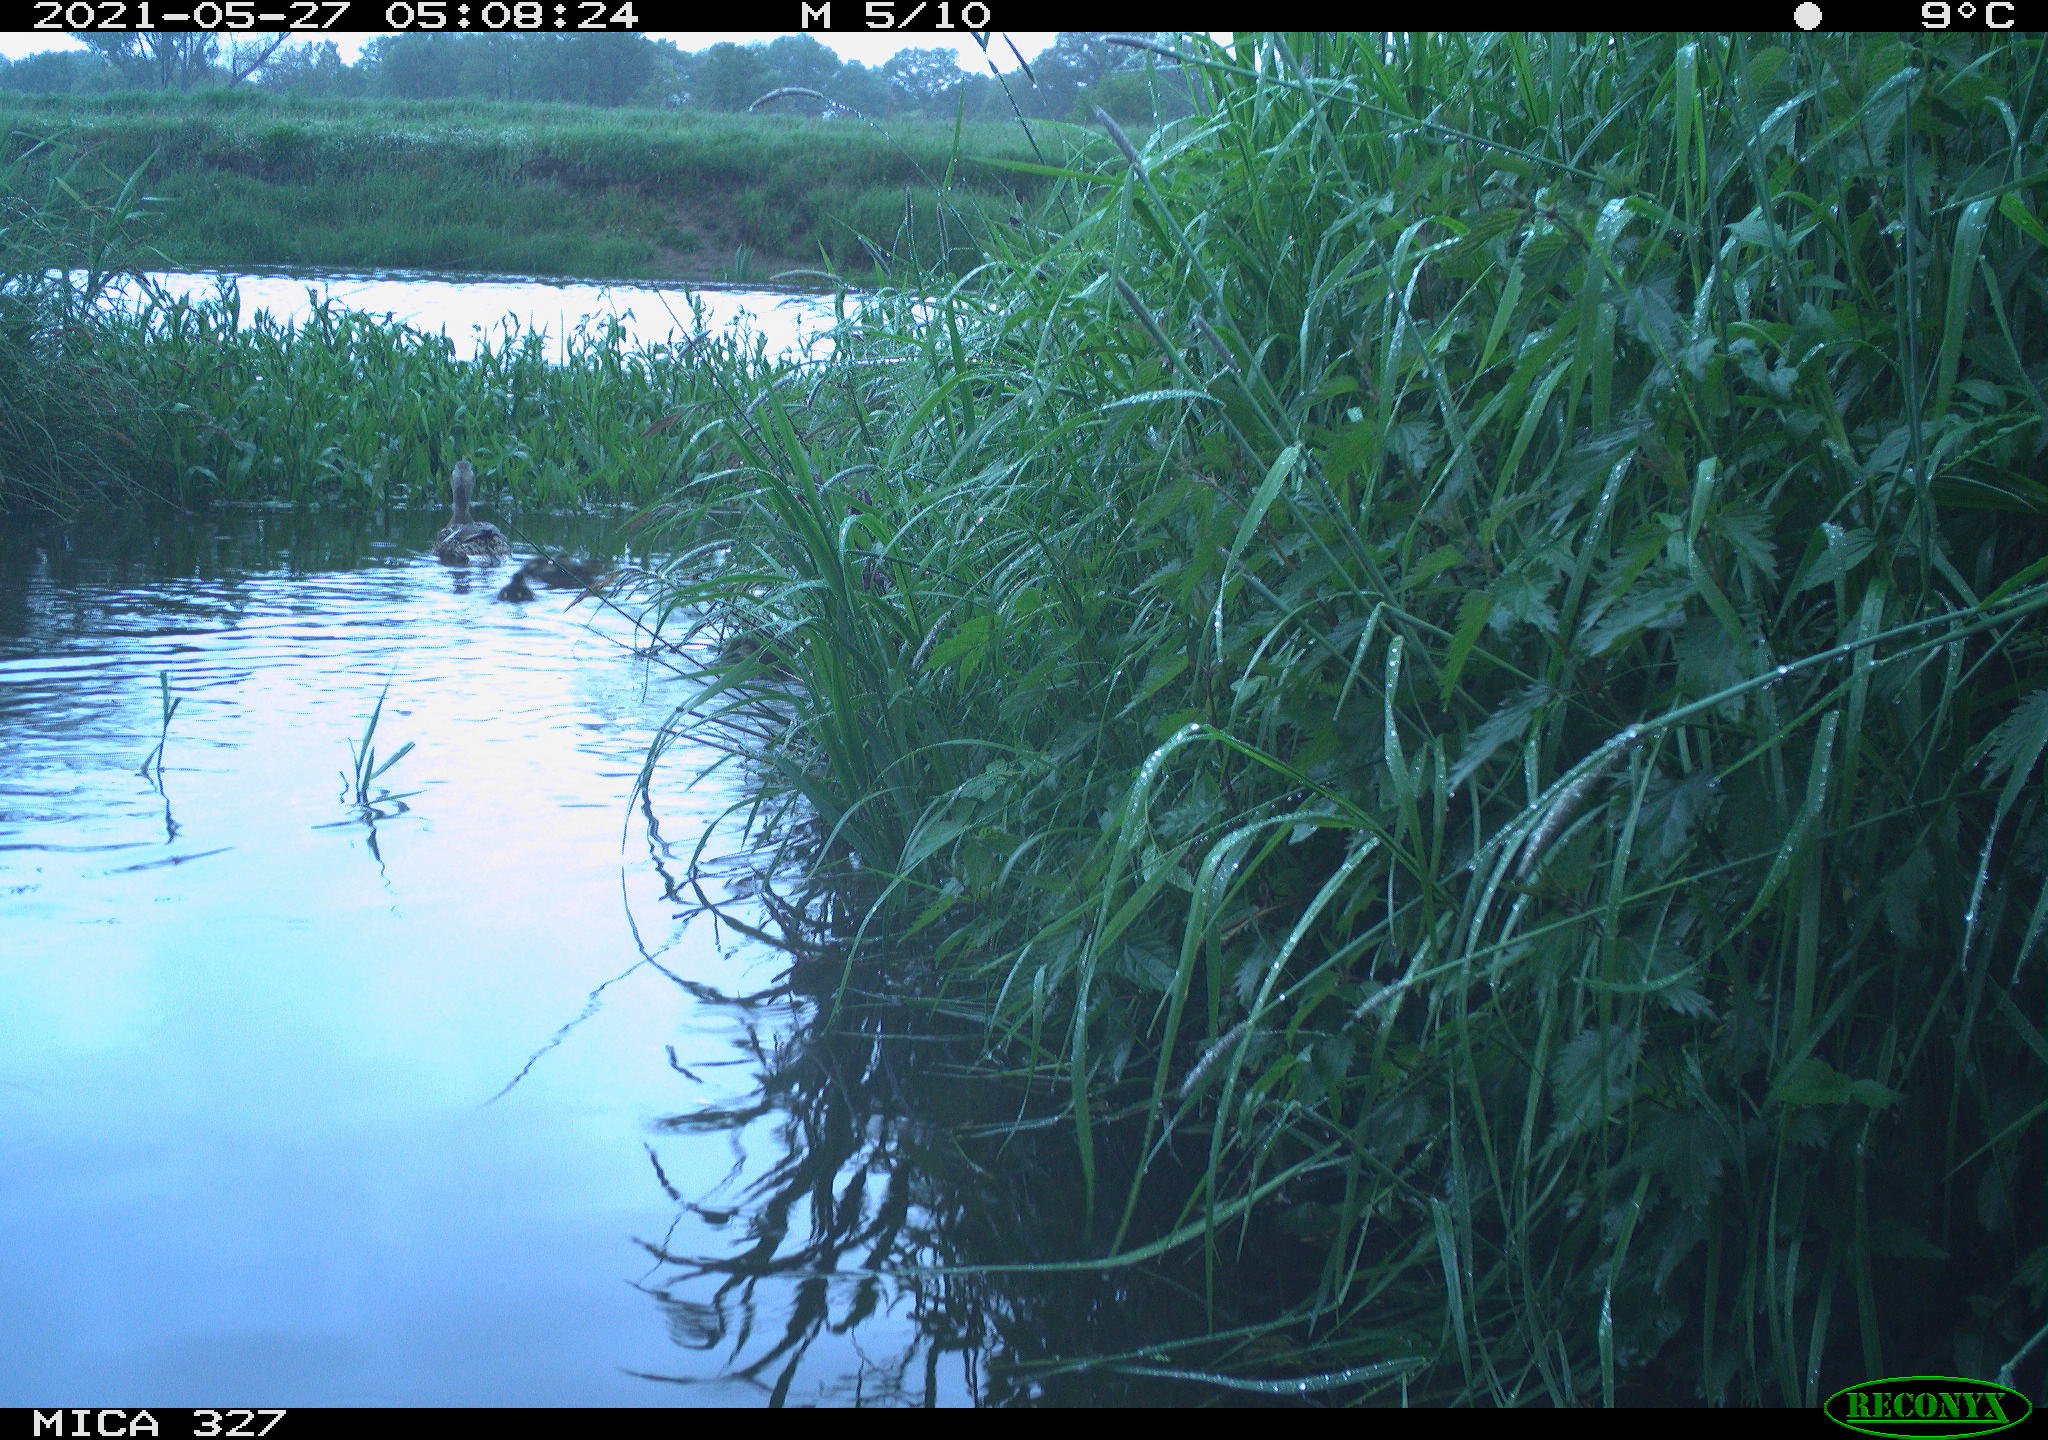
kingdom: Animalia
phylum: Chordata
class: Aves
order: Anseriformes
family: Anatidae
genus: Anas
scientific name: Anas platyrhynchos
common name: Mallard
